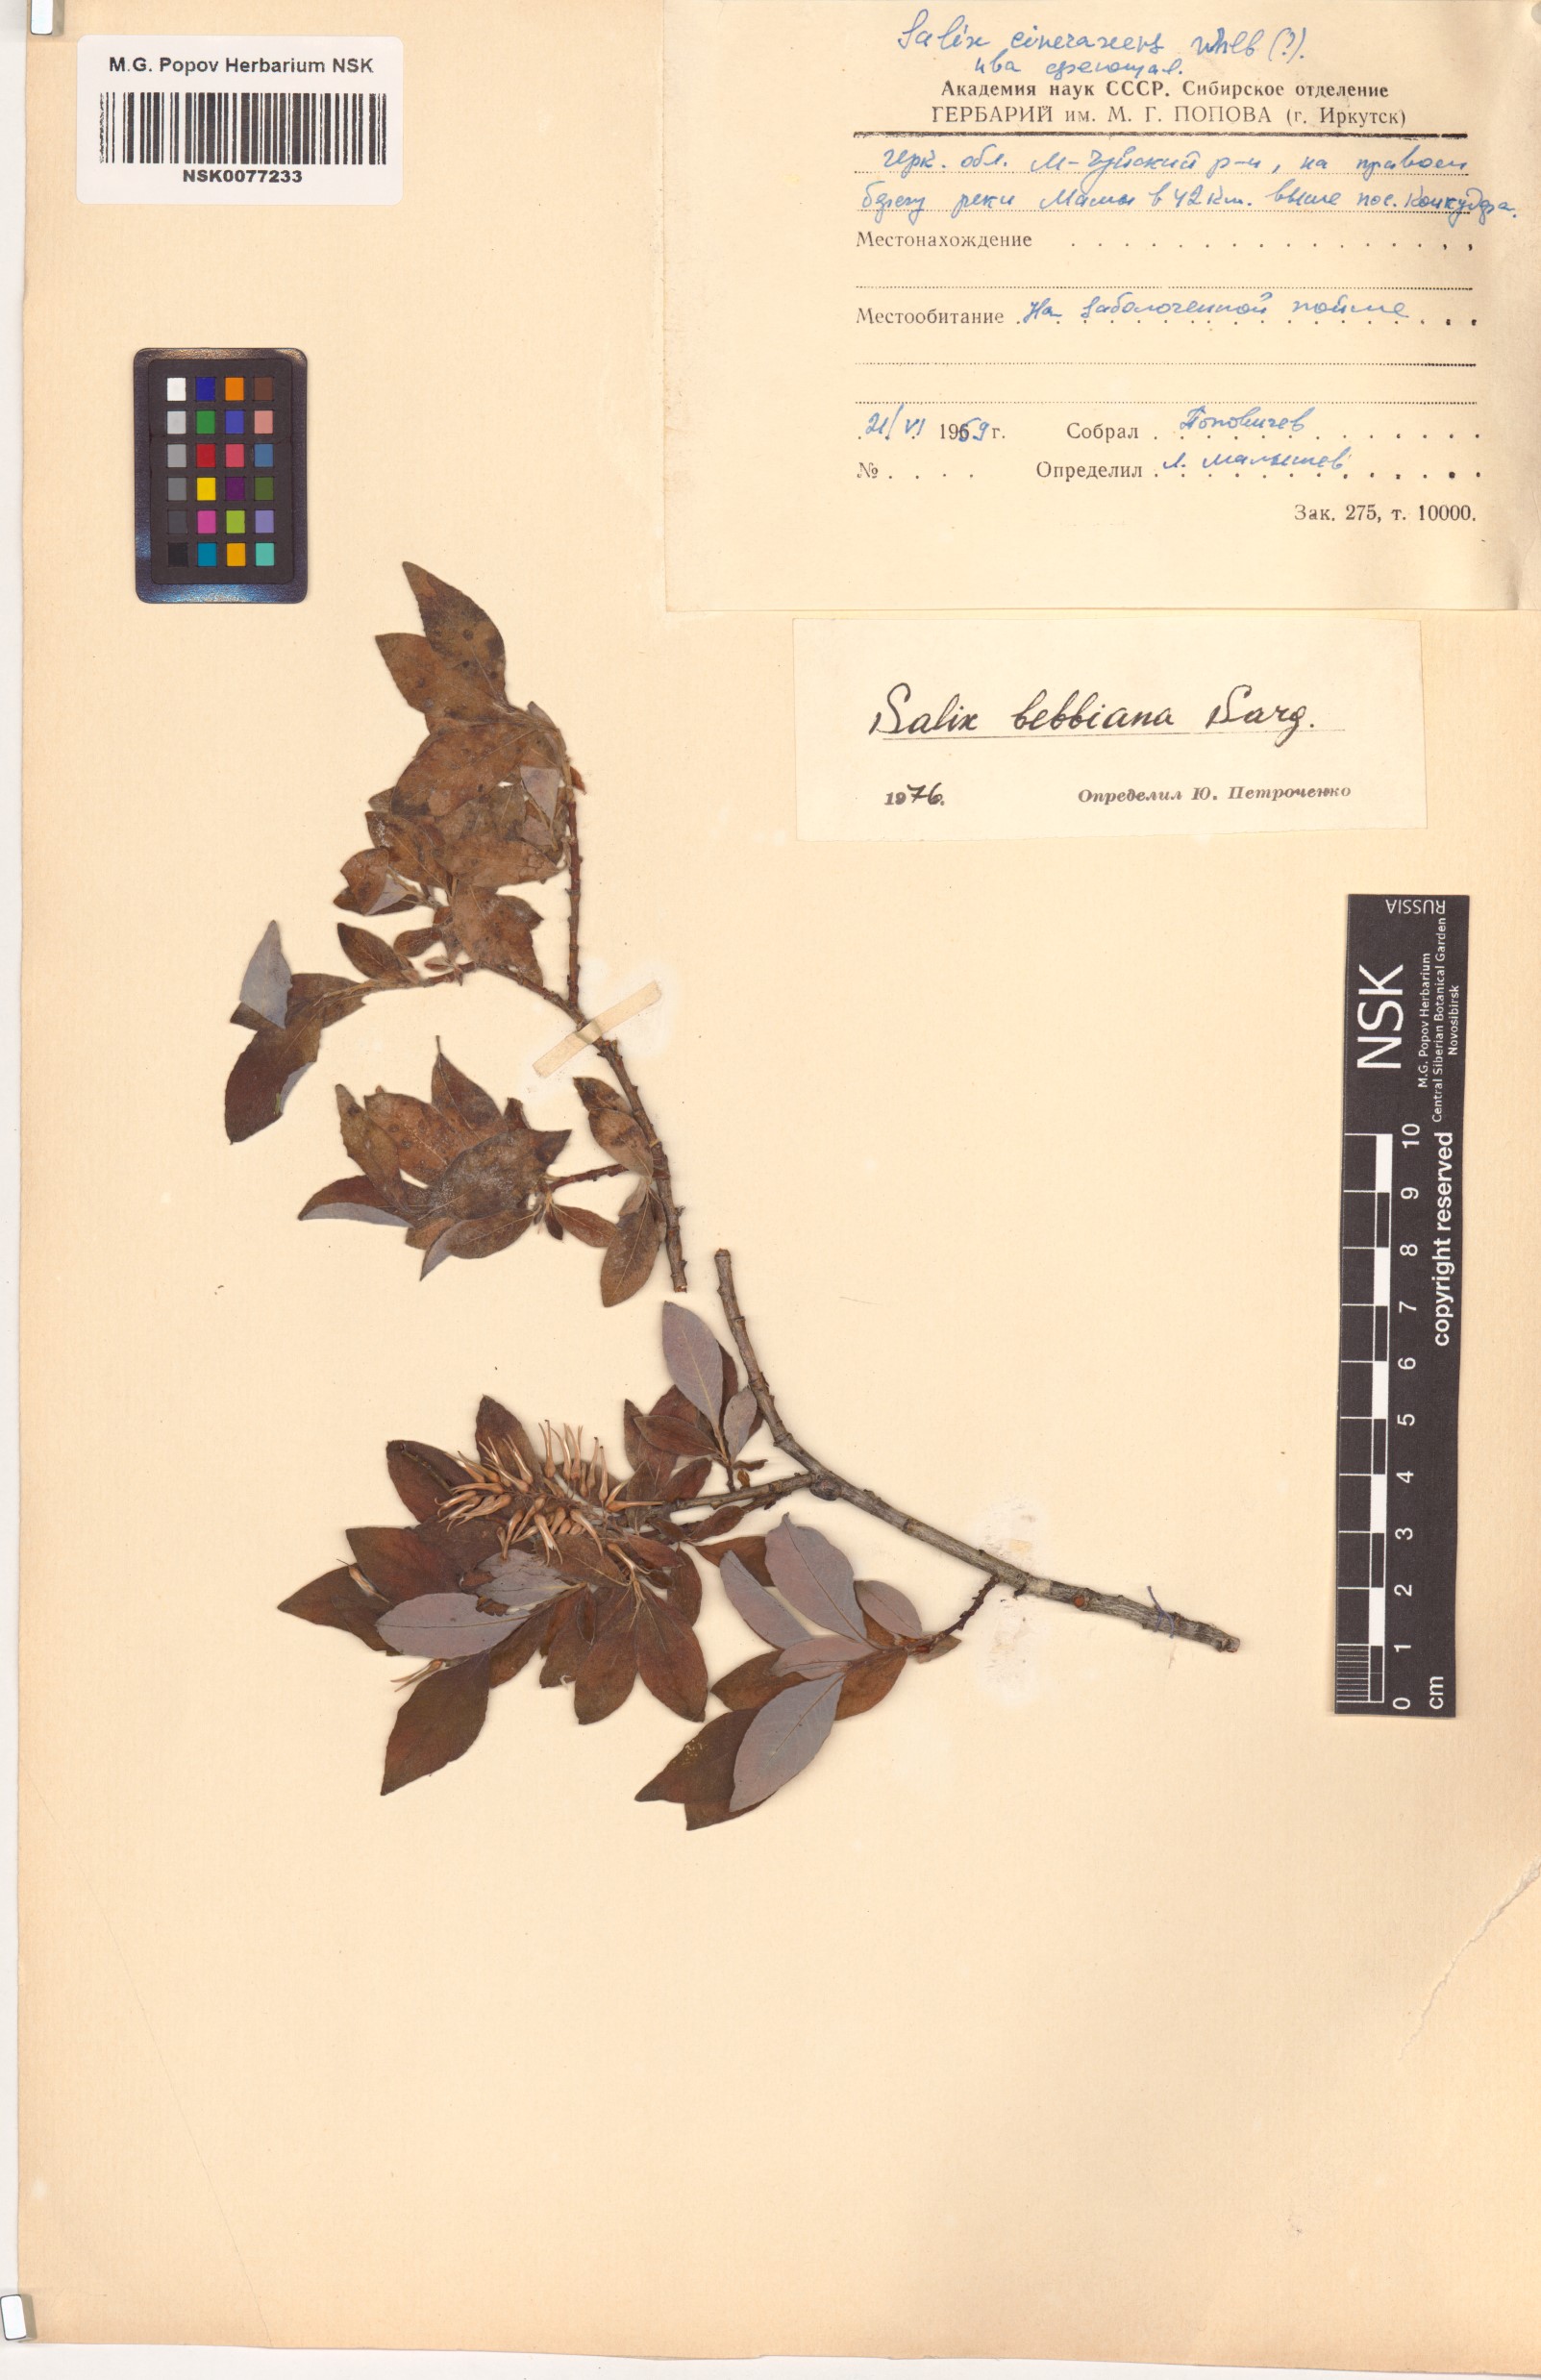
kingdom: Plantae
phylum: Tracheophyta
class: Magnoliopsida
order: Malpighiales
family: Salicaceae
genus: Salix
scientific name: Salix bebbiana
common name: Bebb's willow
